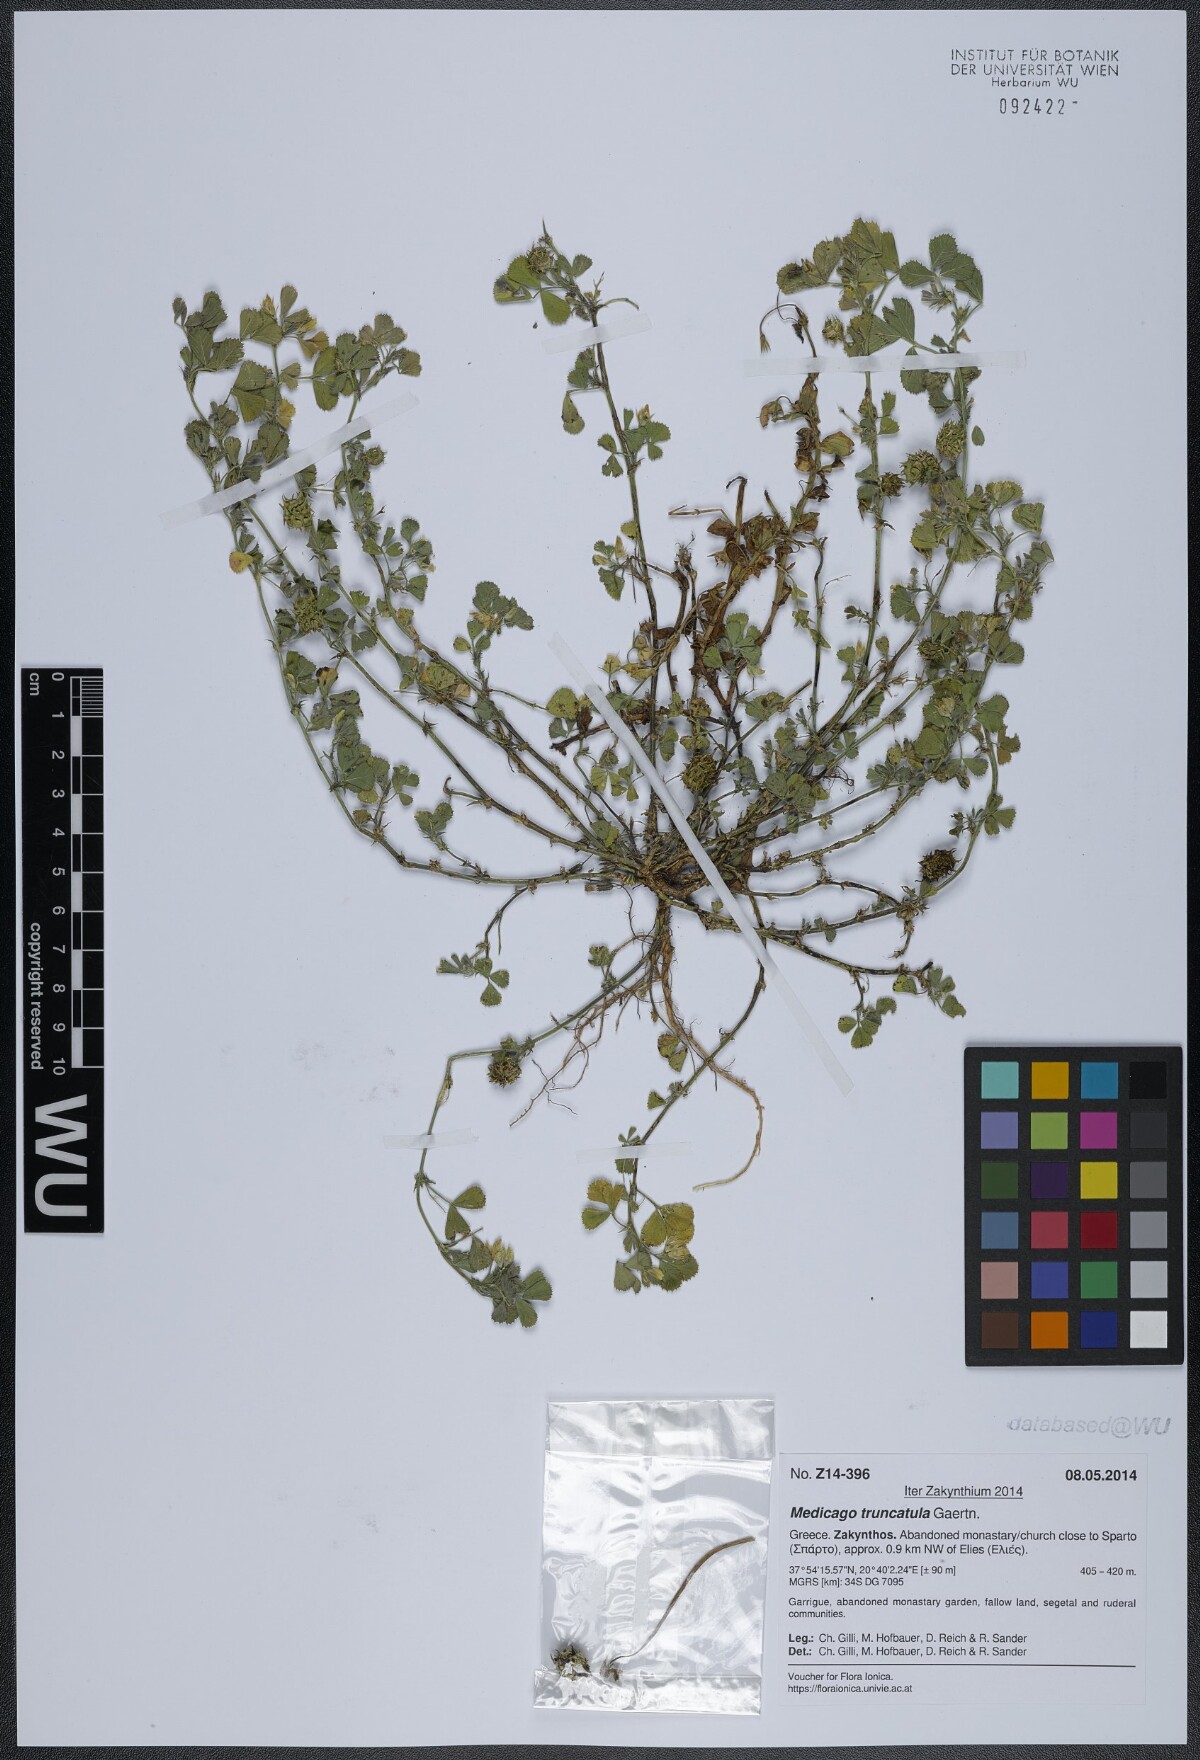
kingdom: Plantae
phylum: Tracheophyta
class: Magnoliopsida
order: Fabales
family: Fabaceae
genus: Medicago
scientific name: Medicago truncatula
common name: Strong-spined medick
